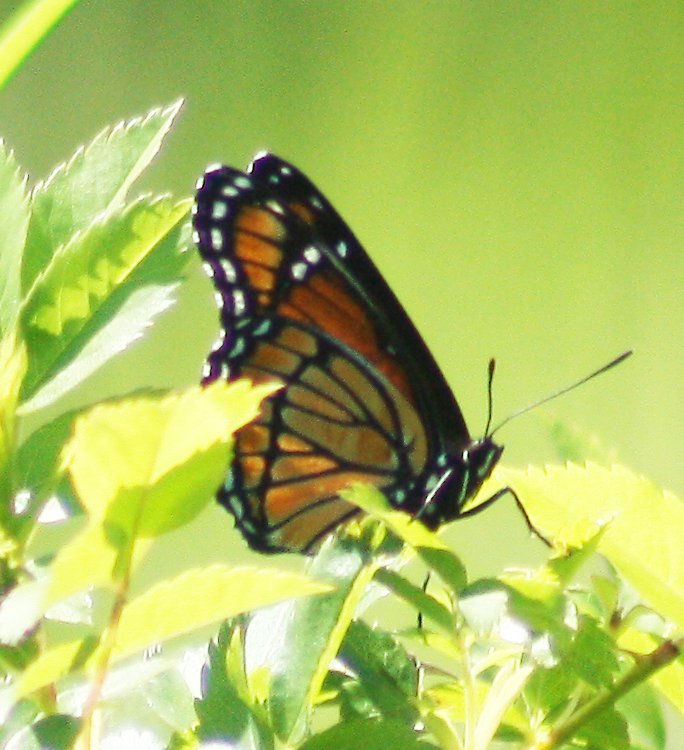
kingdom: Animalia
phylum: Arthropoda
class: Insecta
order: Lepidoptera
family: Nymphalidae
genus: Limenitis
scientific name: Limenitis archippus
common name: Viceroy
